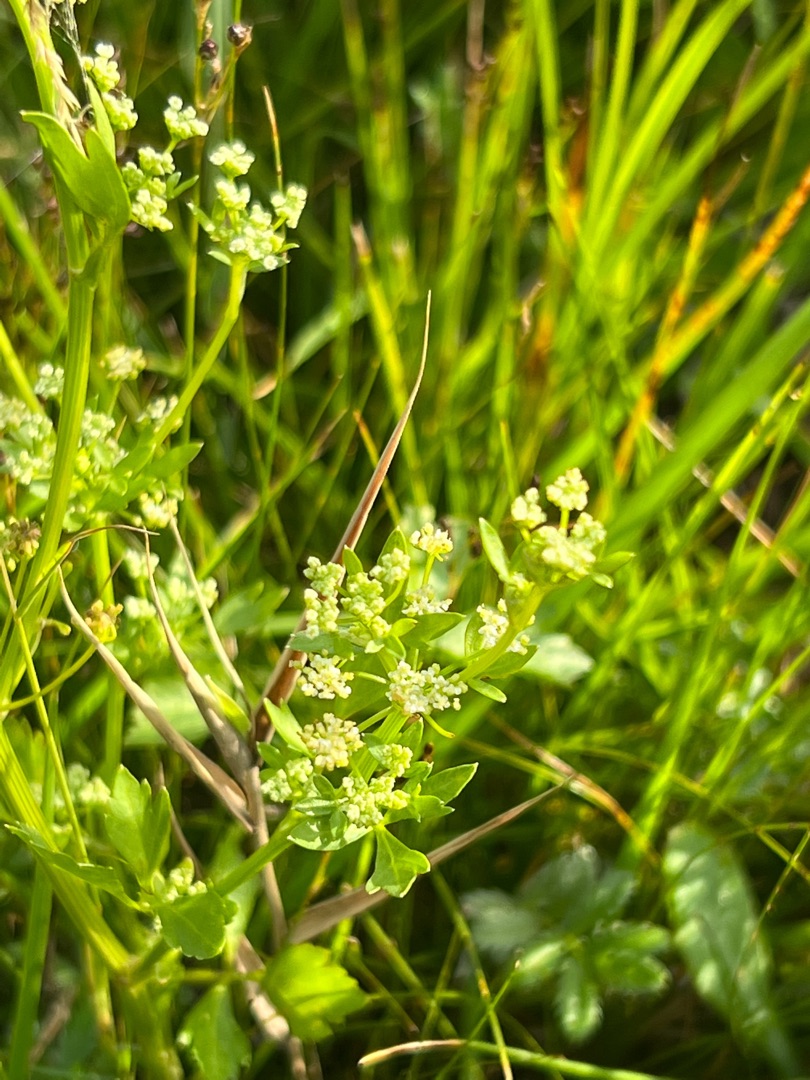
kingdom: Plantae
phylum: Tracheophyta
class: Magnoliopsida
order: Apiales
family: Apiaceae
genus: Apium
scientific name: Apium graveolens
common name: Vild selleri
